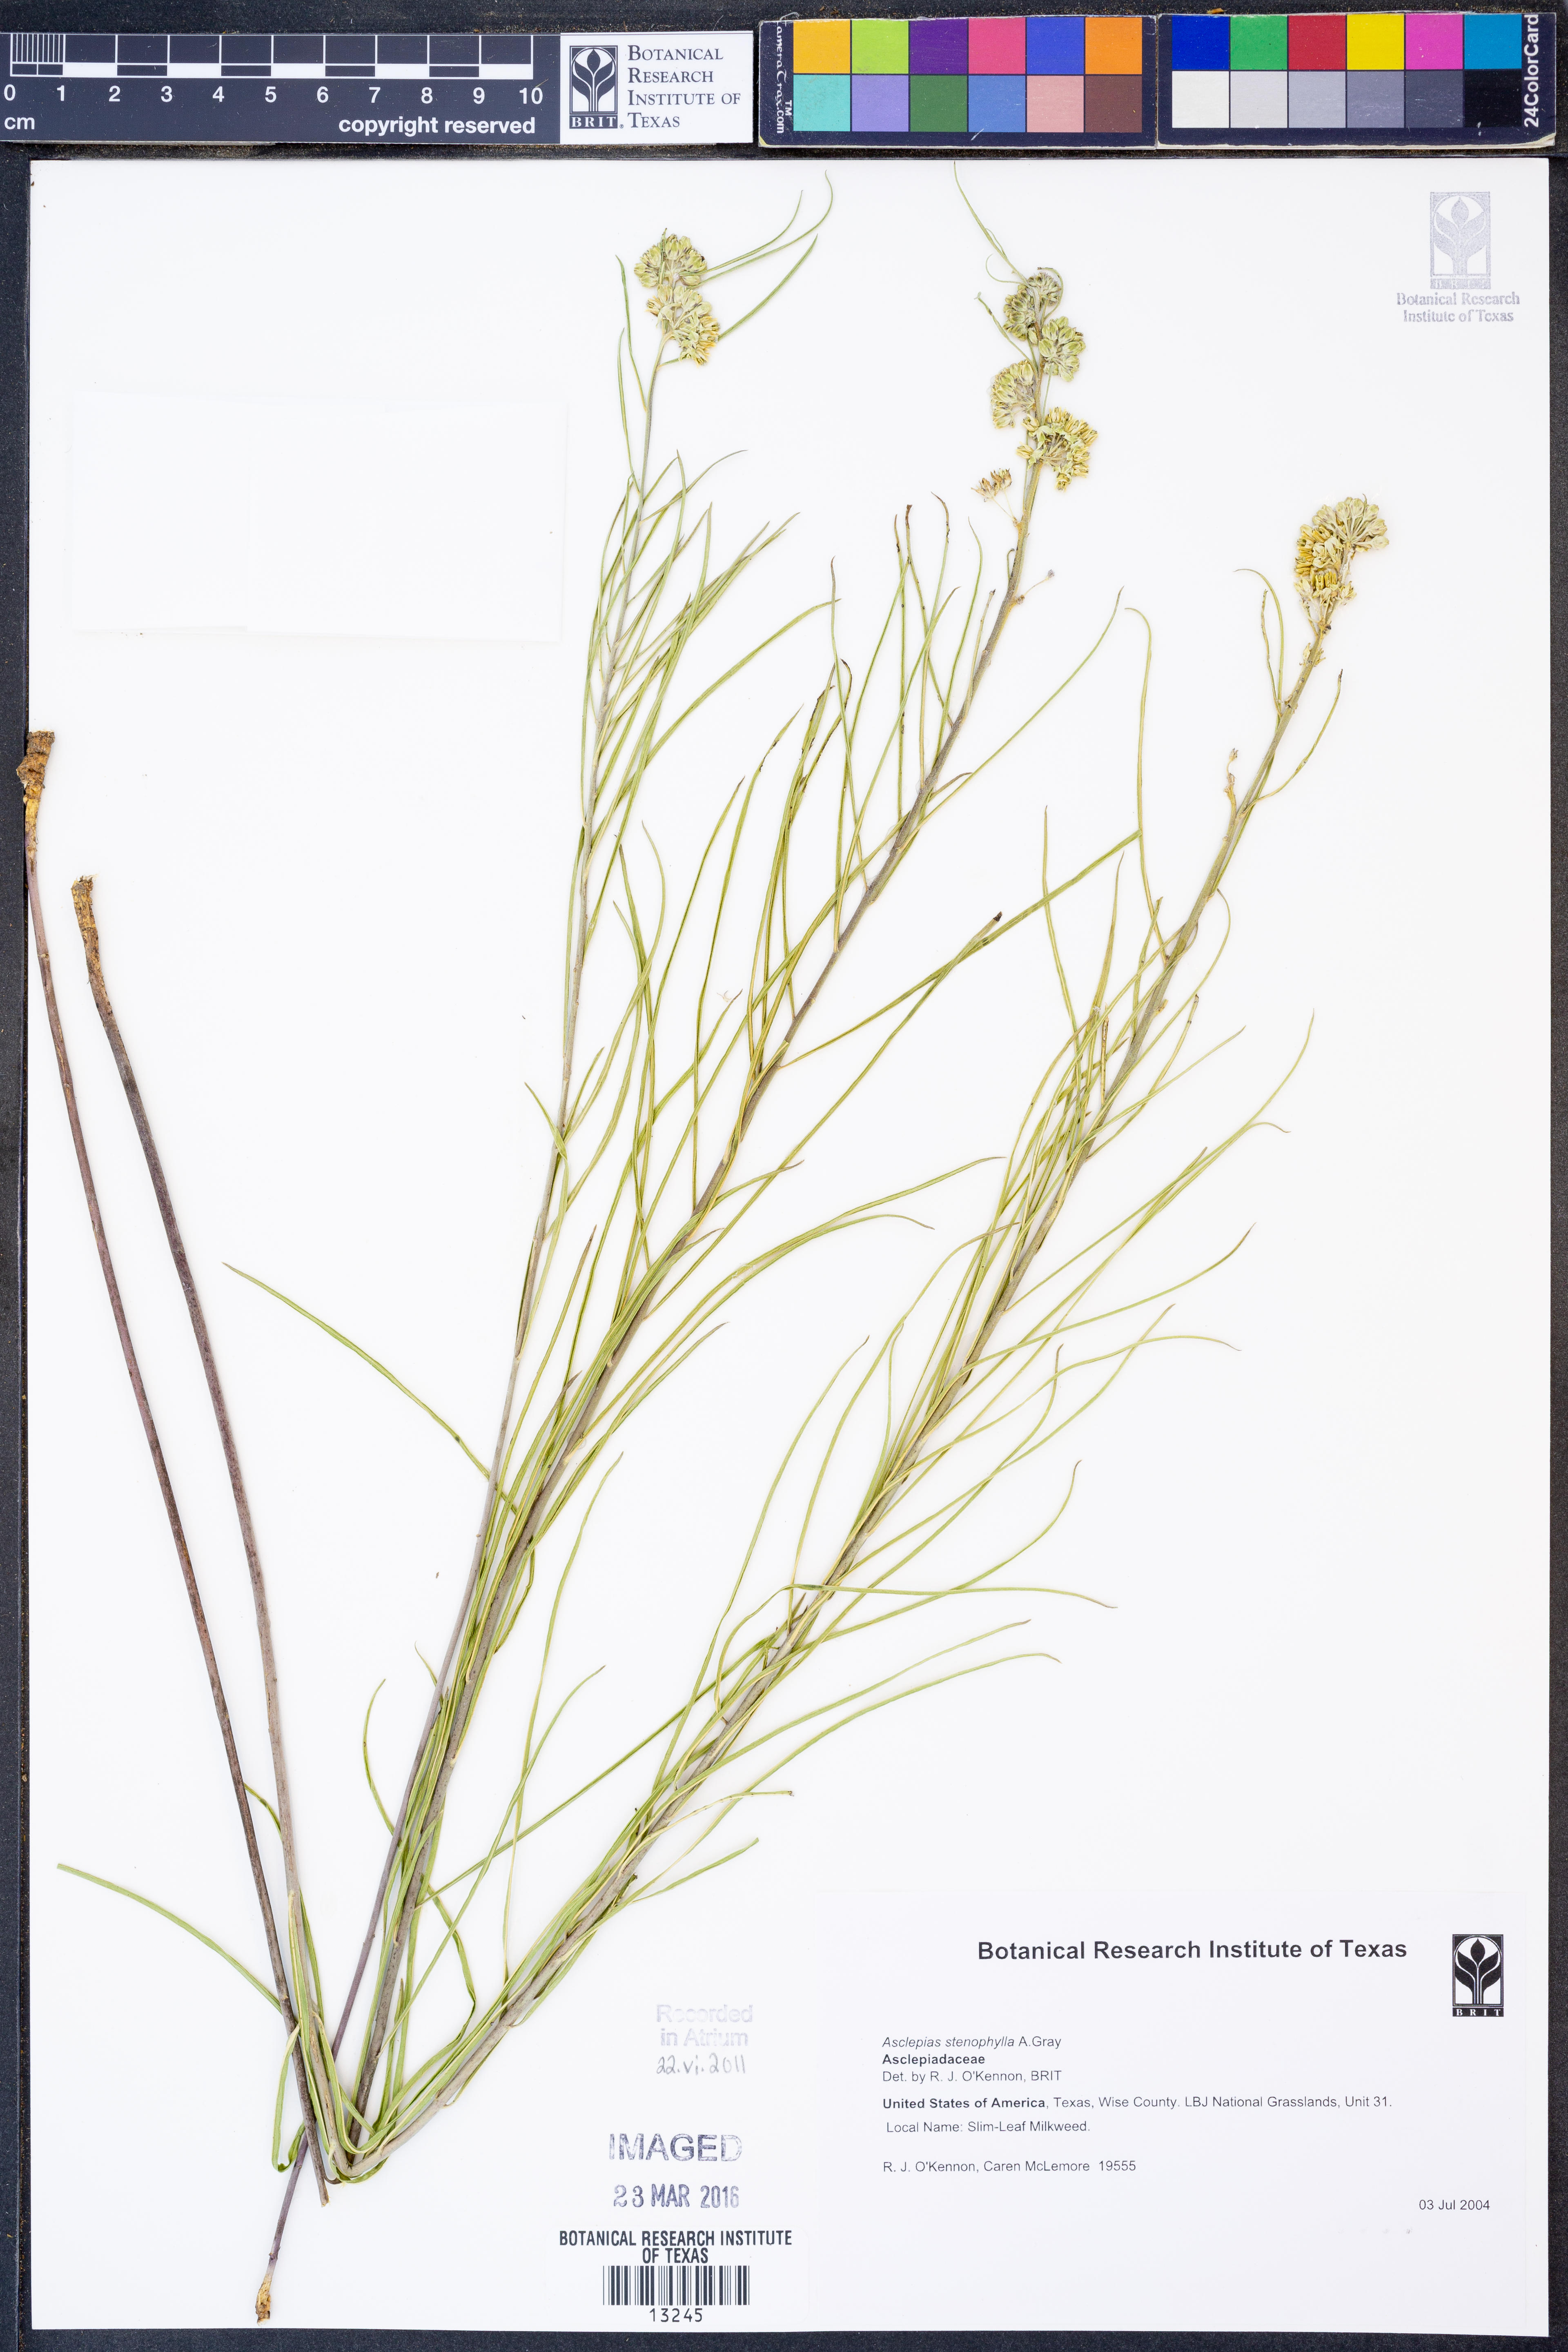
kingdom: Plantae
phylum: Tracheophyta
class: Magnoliopsida
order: Gentianales
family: Apocynaceae
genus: Asclepias
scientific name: Asclepias stenophylla
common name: Narrow-leaf milkweed
